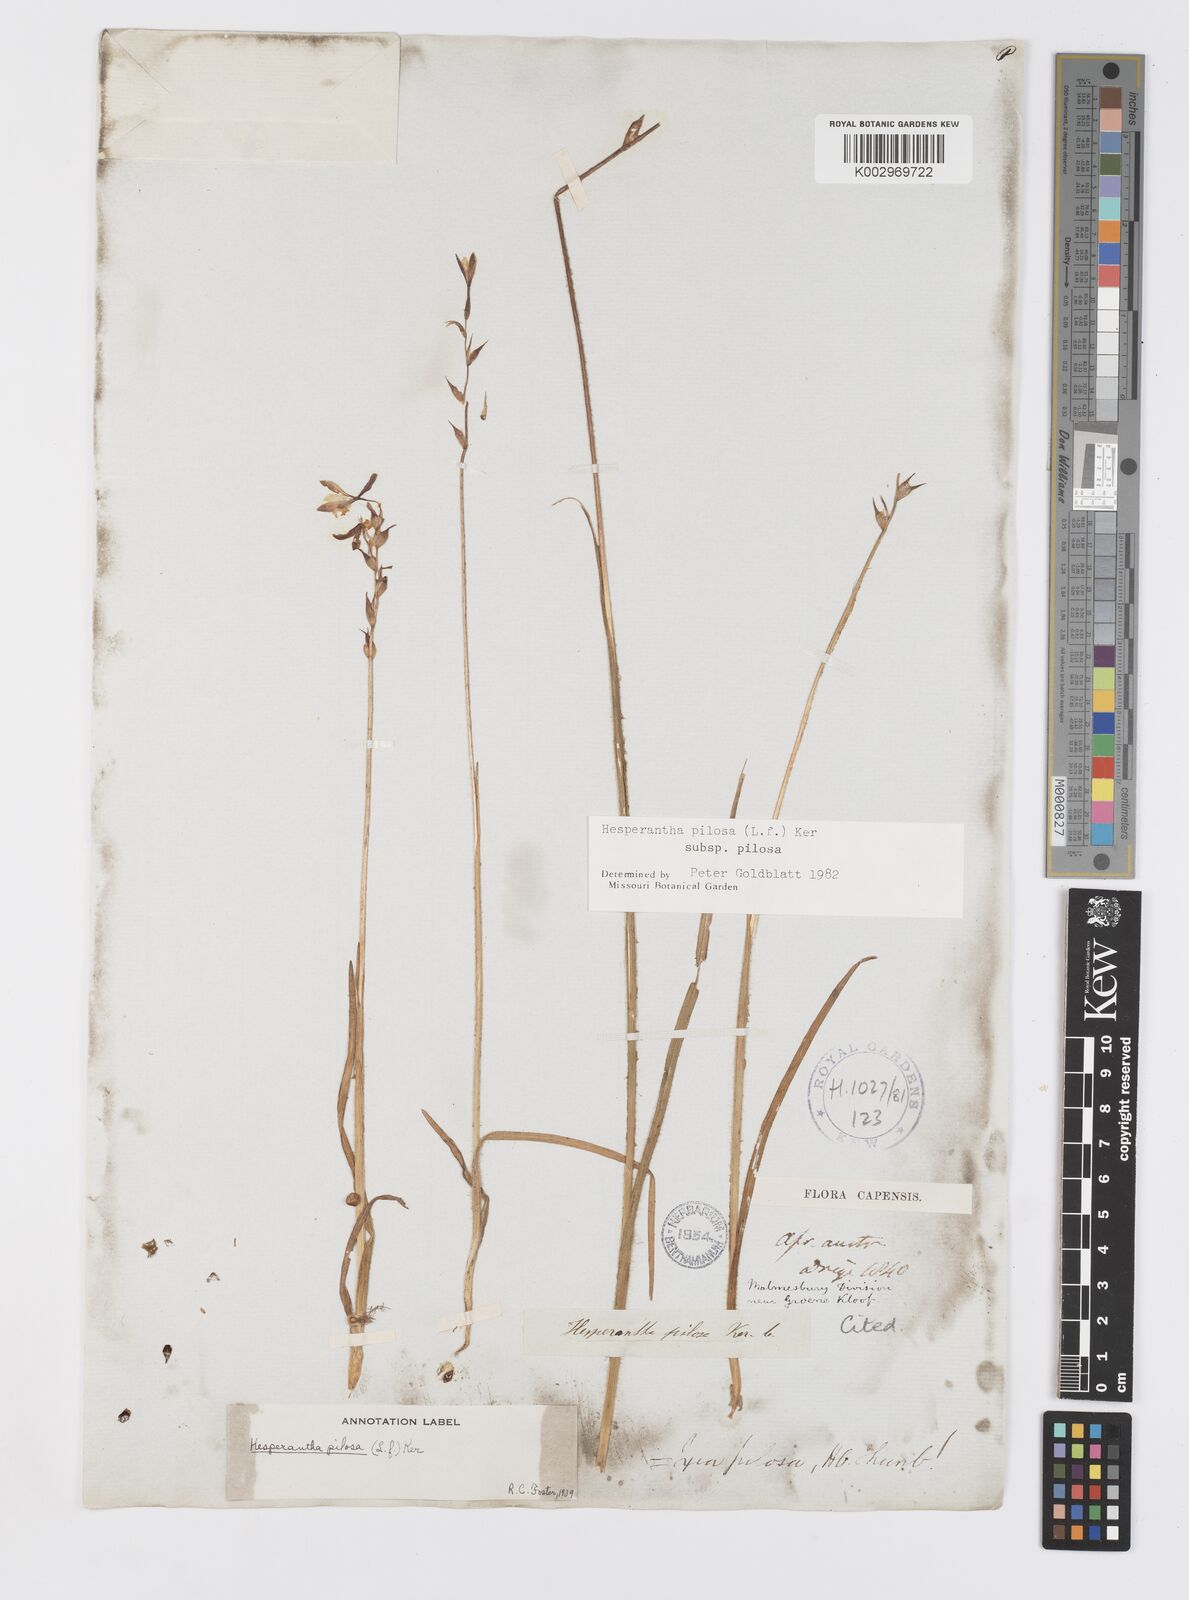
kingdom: Plantae
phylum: Tracheophyta
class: Liliopsida
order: Asparagales
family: Iridaceae
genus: Hesperantha
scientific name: Hesperantha pilosa
